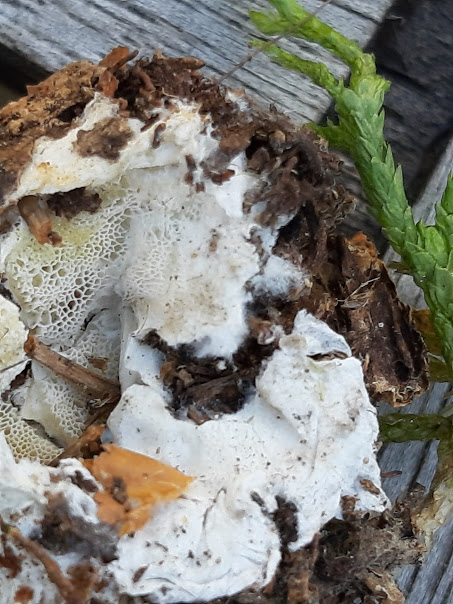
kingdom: Fungi
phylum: Basidiomycota
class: Agaricomycetes
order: Polyporales
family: Incrustoporiaceae
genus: Skeletocutis
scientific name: Skeletocutis amorpha
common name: orange krystalporesvamp
